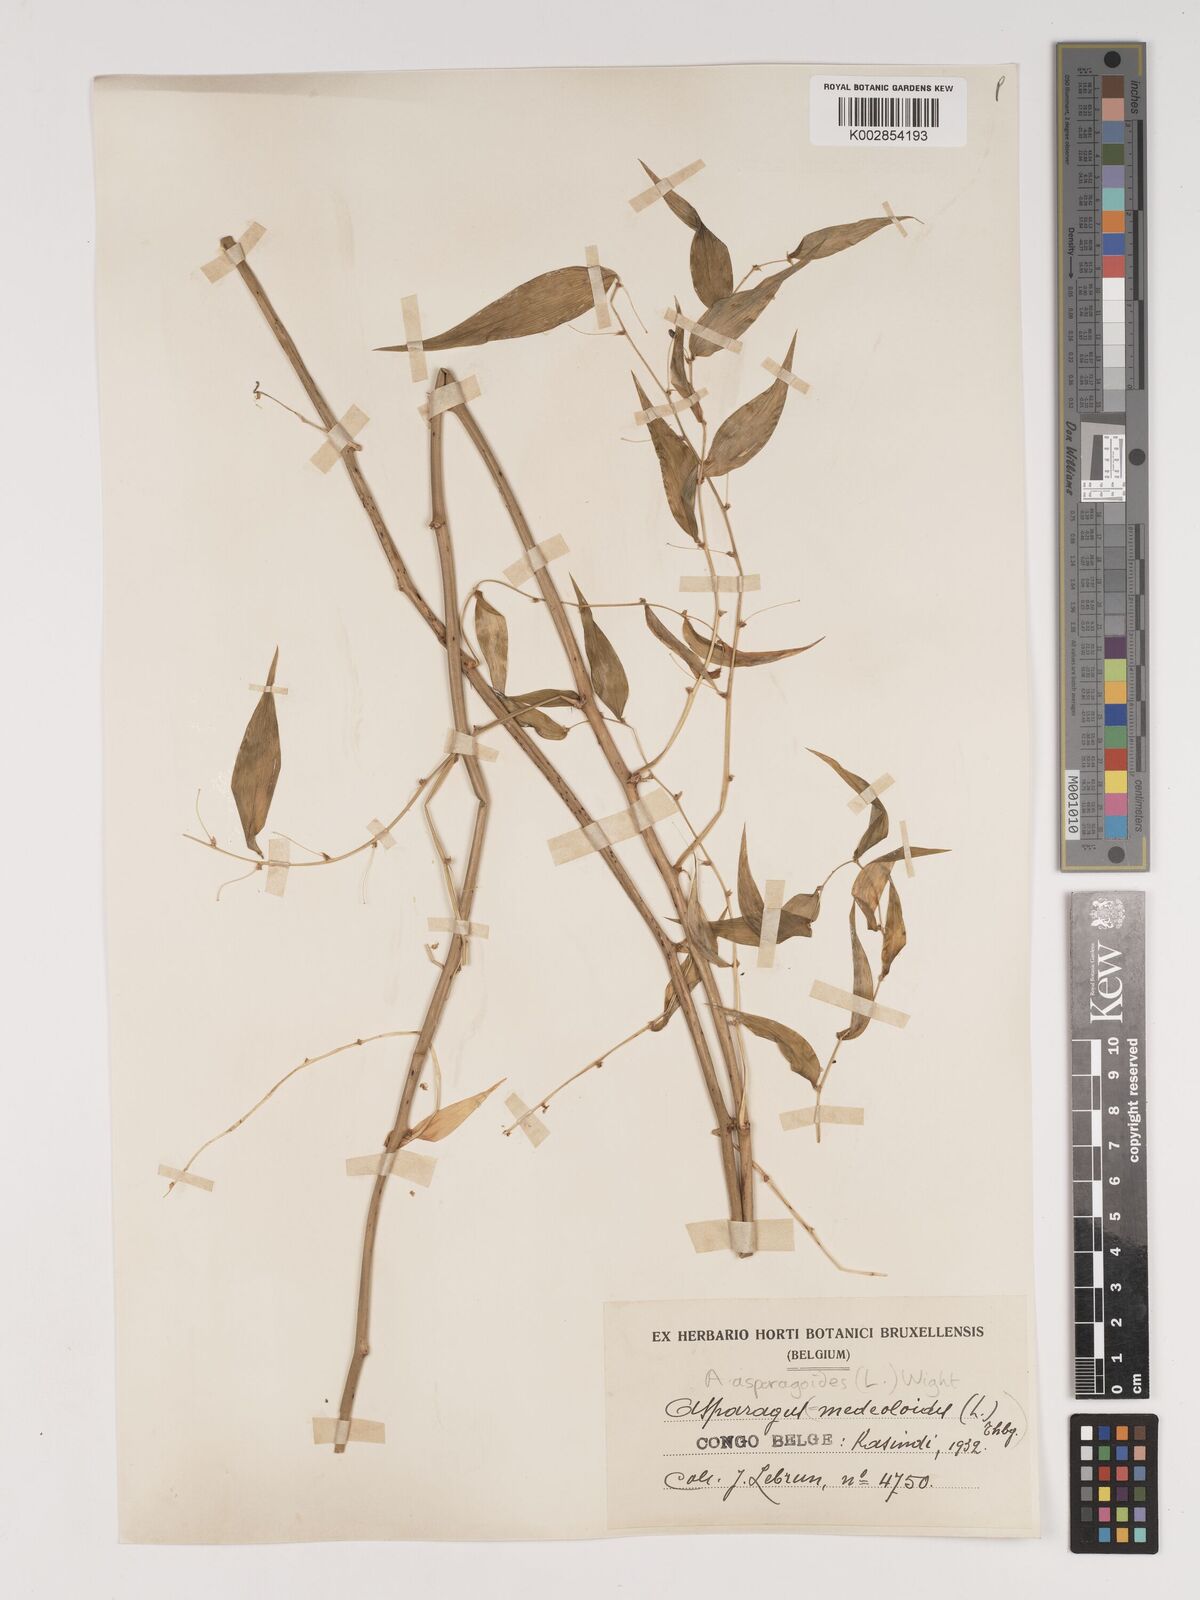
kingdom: Plantae
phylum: Tracheophyta
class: Liliopsida
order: Asparagales
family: Asparagaceae
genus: Asparagus
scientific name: Asparagus asparagoides
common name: African asparagus fern
